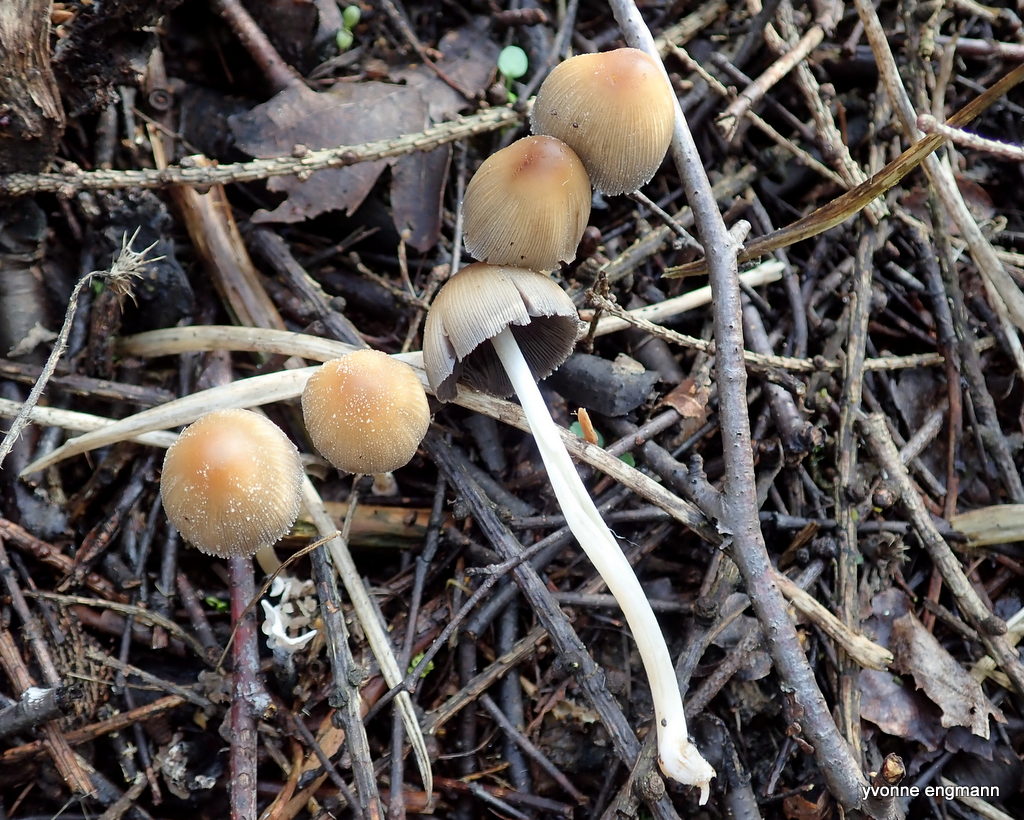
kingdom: Fungi
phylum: Basidiomycota
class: Agaricomycetes
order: Agaricales
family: Psathyrellaceae
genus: Coprinellus
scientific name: Coprinellus micaceus
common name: glimmer-blækhat
